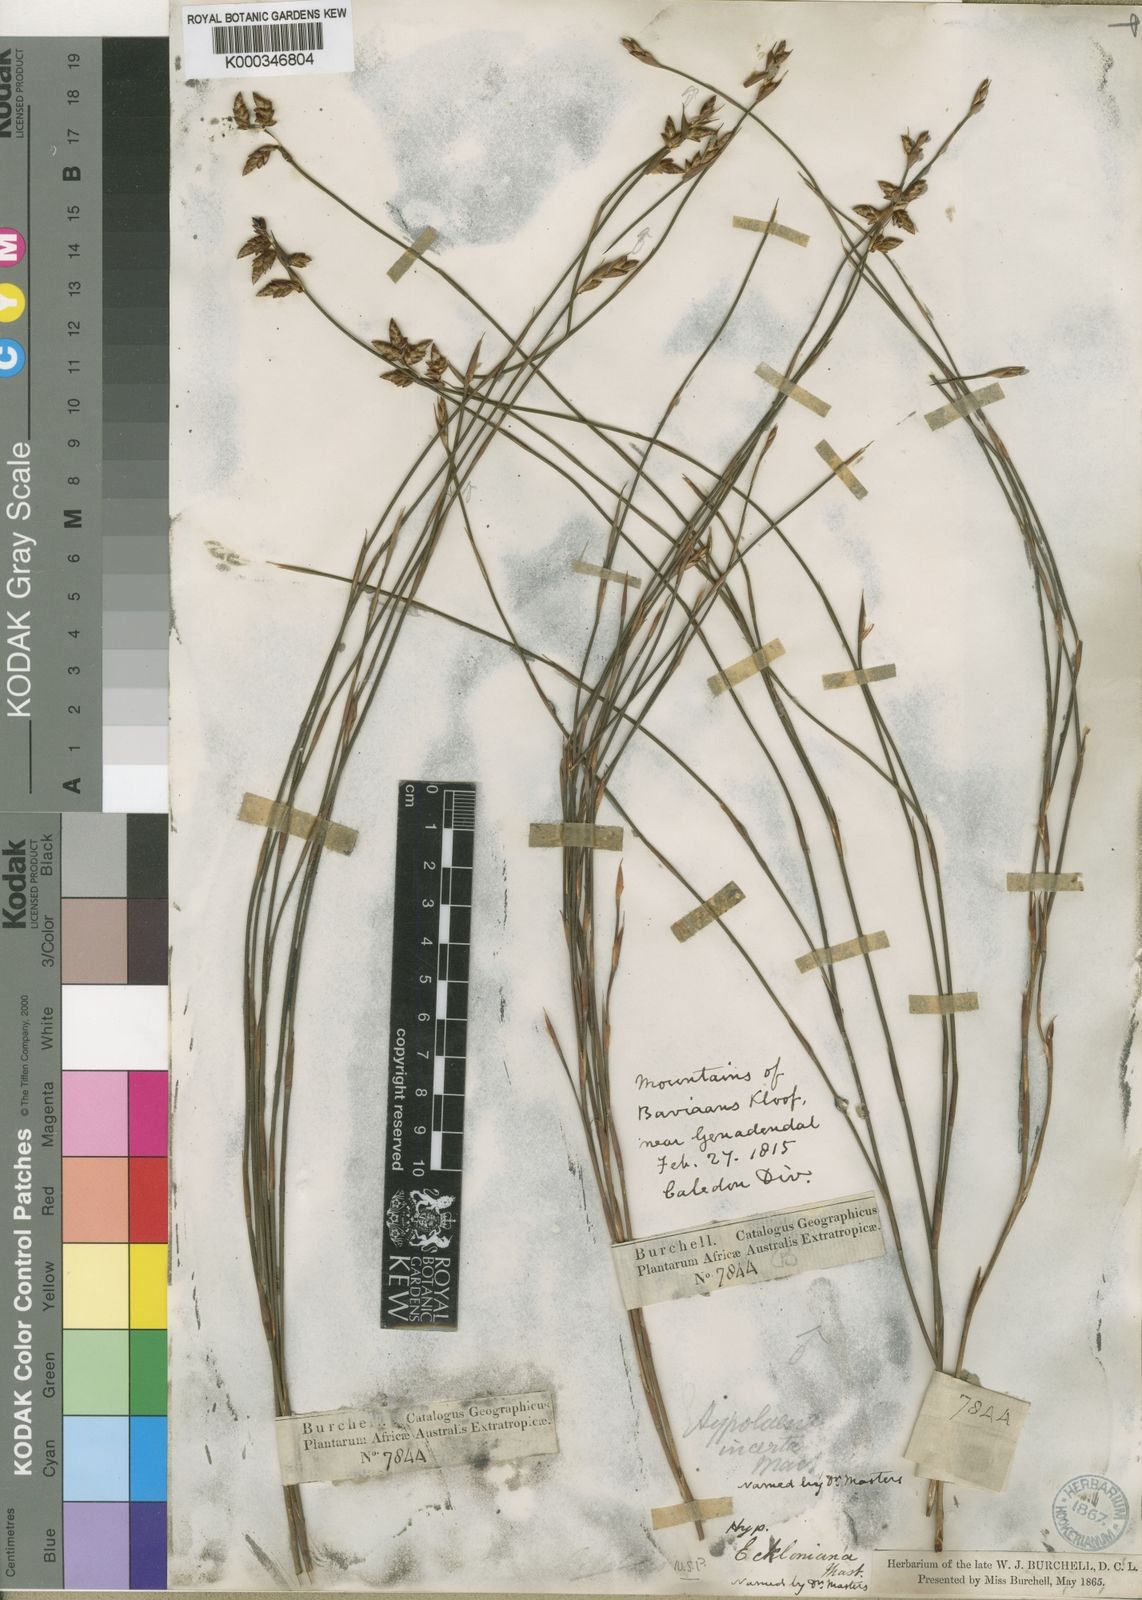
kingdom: Plantae
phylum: Tracheophyta
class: Liliopsida
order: Poales
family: Restionaceae
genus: Mastersiella
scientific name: Mastersiella digitata
